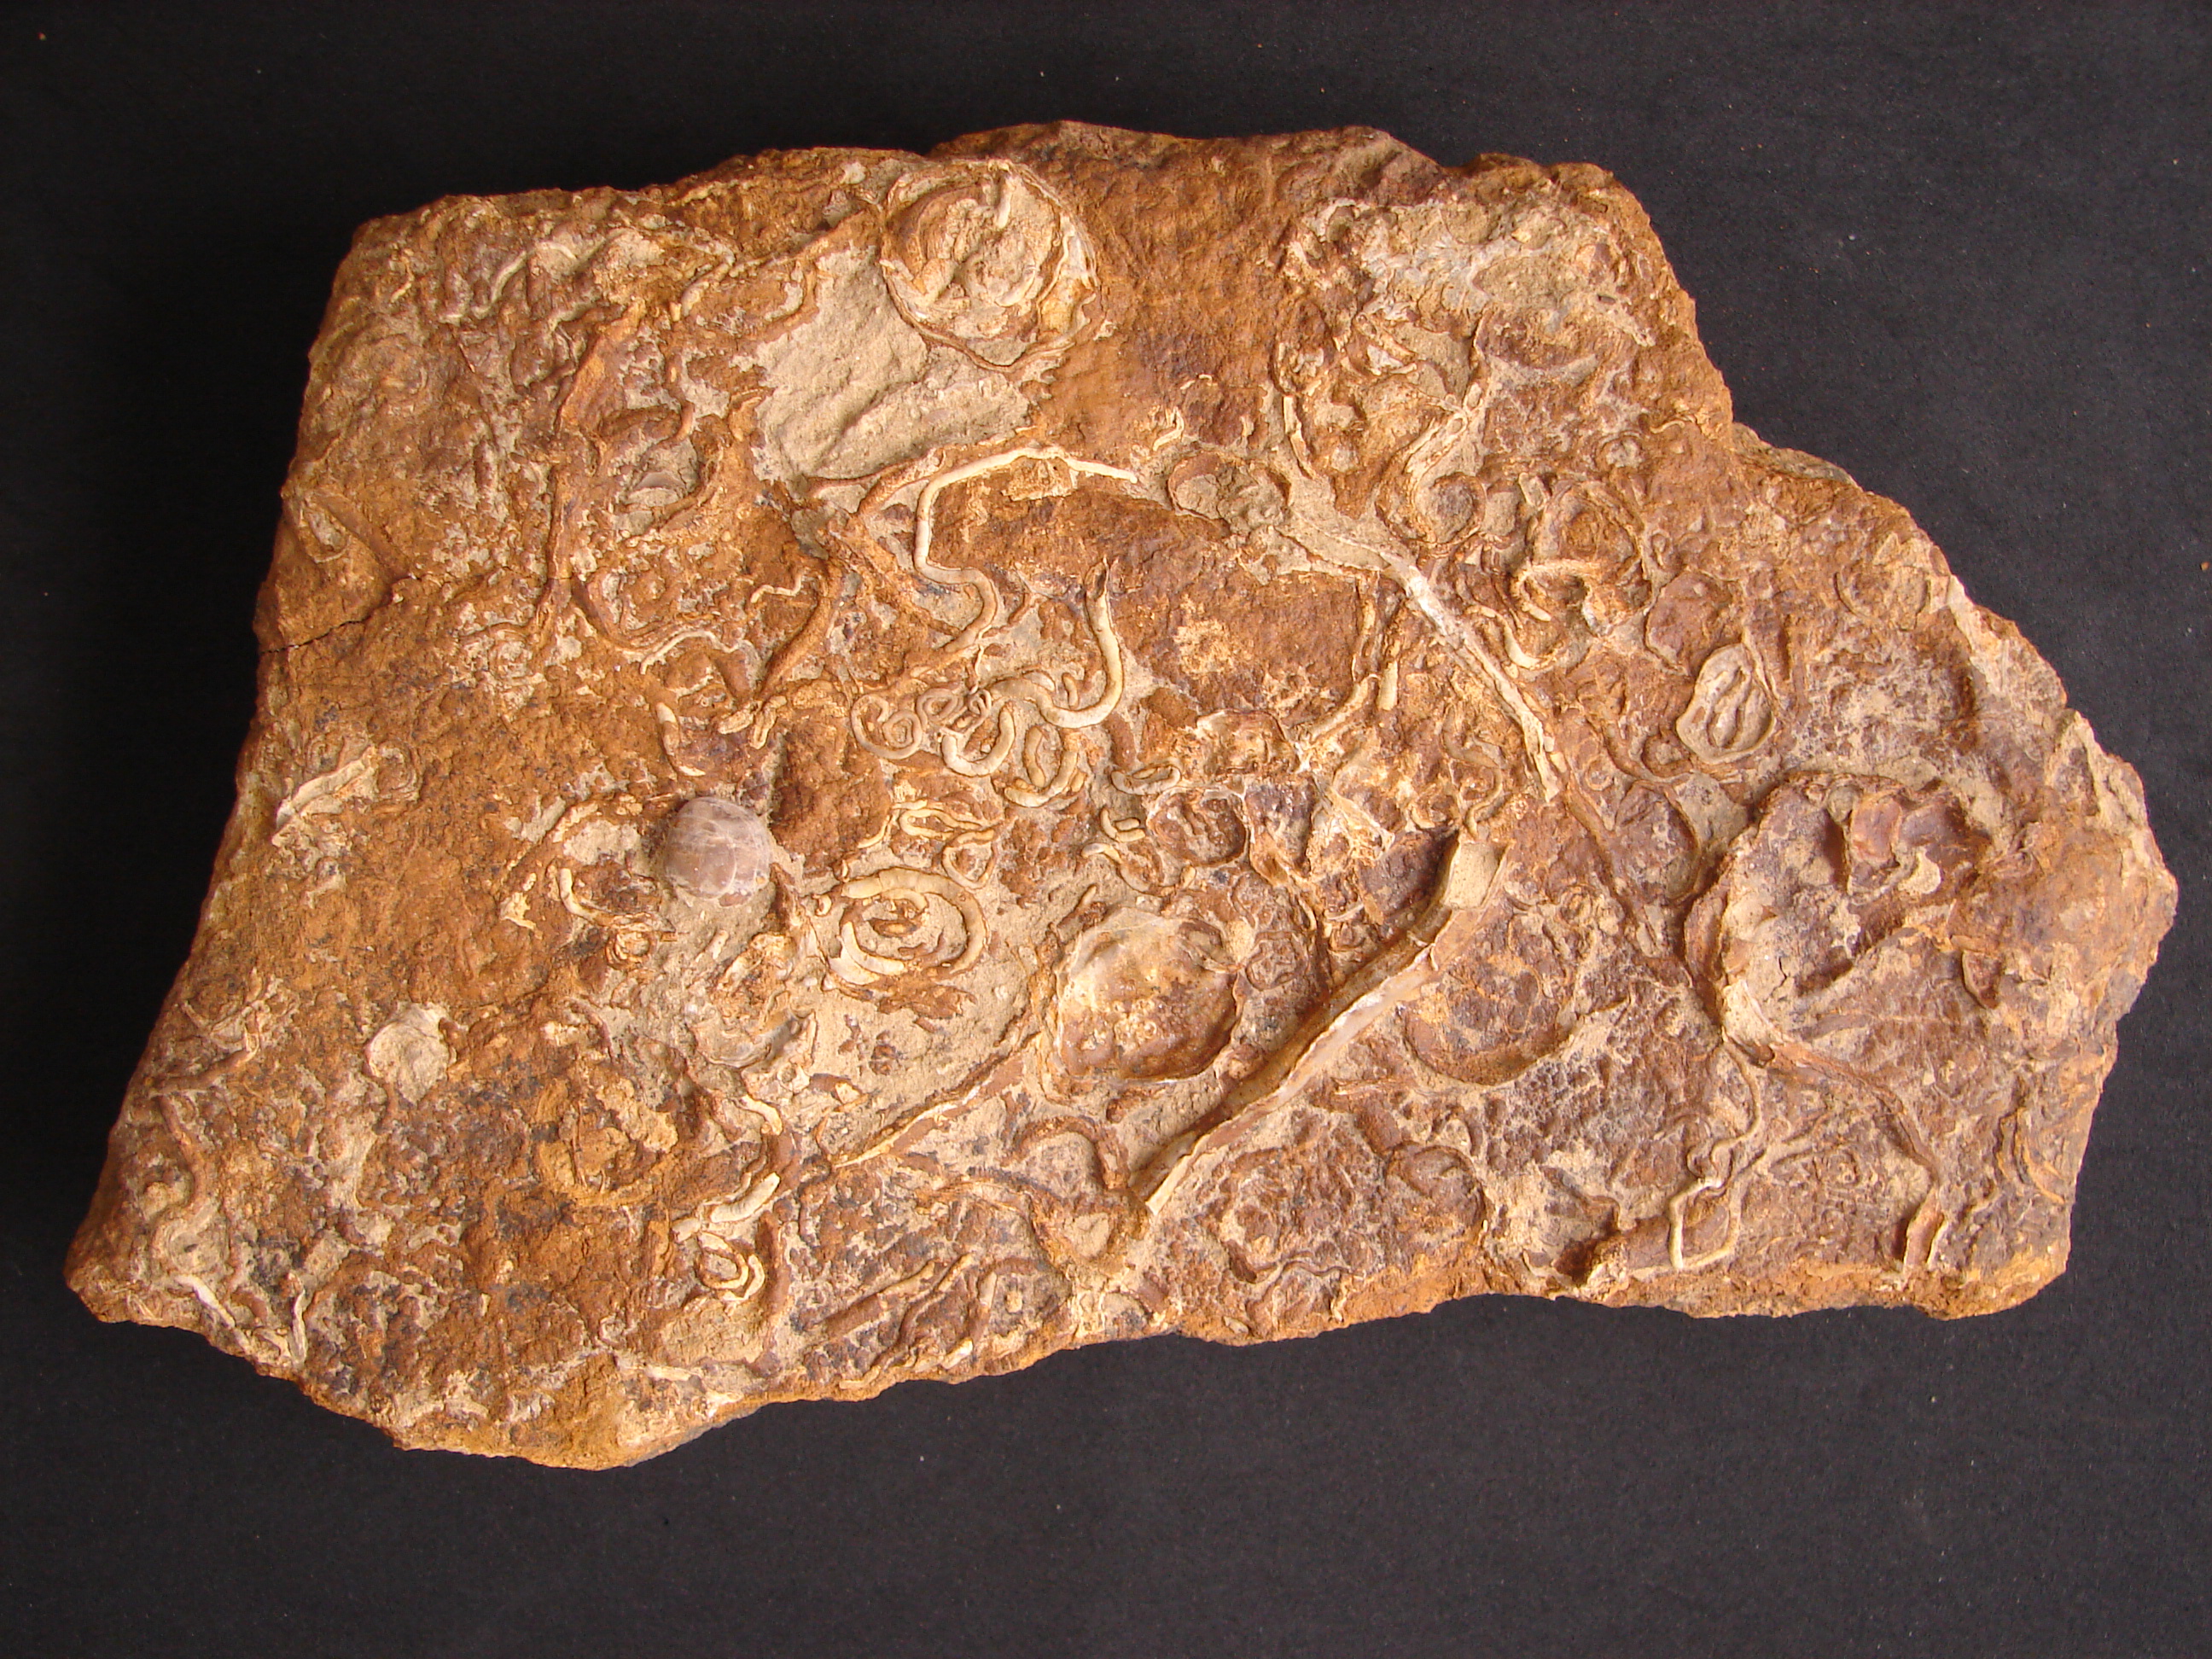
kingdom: Animalia
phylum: Annelida
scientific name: Annelida
